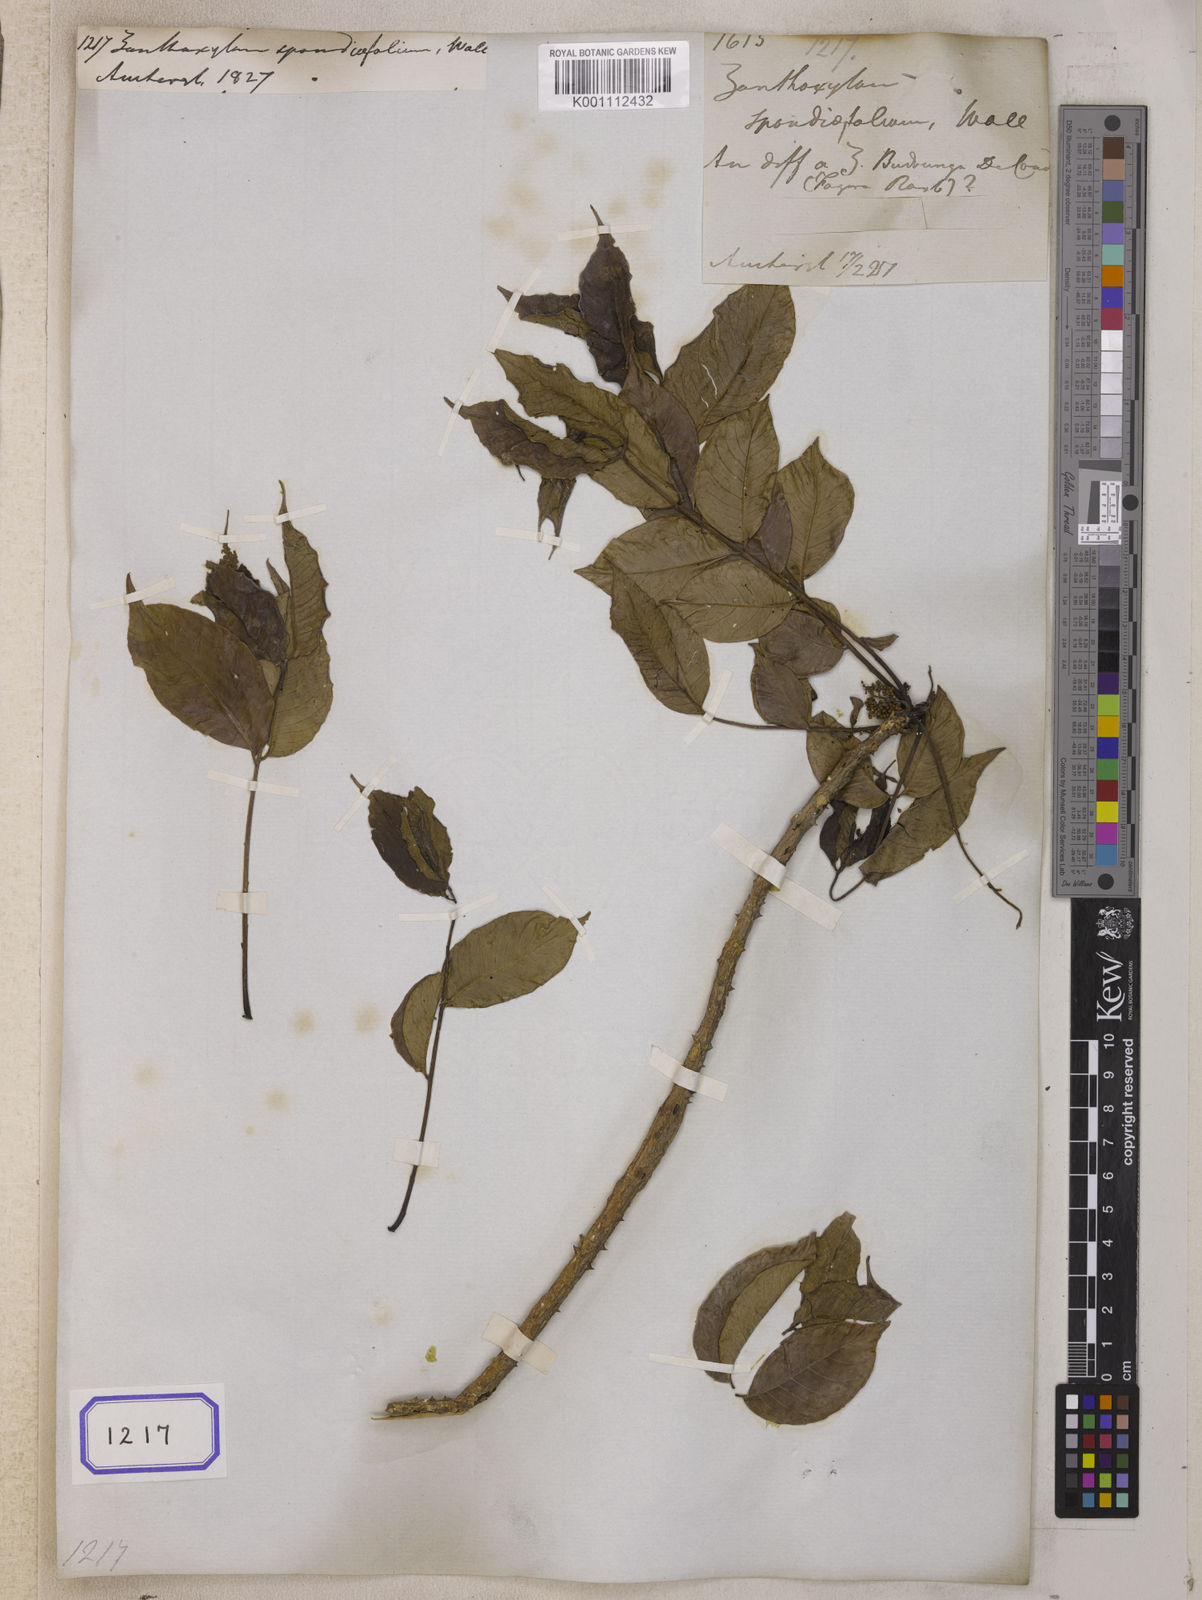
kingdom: Plantae
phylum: Tracheophyta
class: Magnoliopsida
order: Sapindales
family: Rutaceae
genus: Zanthoxylum
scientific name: Zanthoxylum
